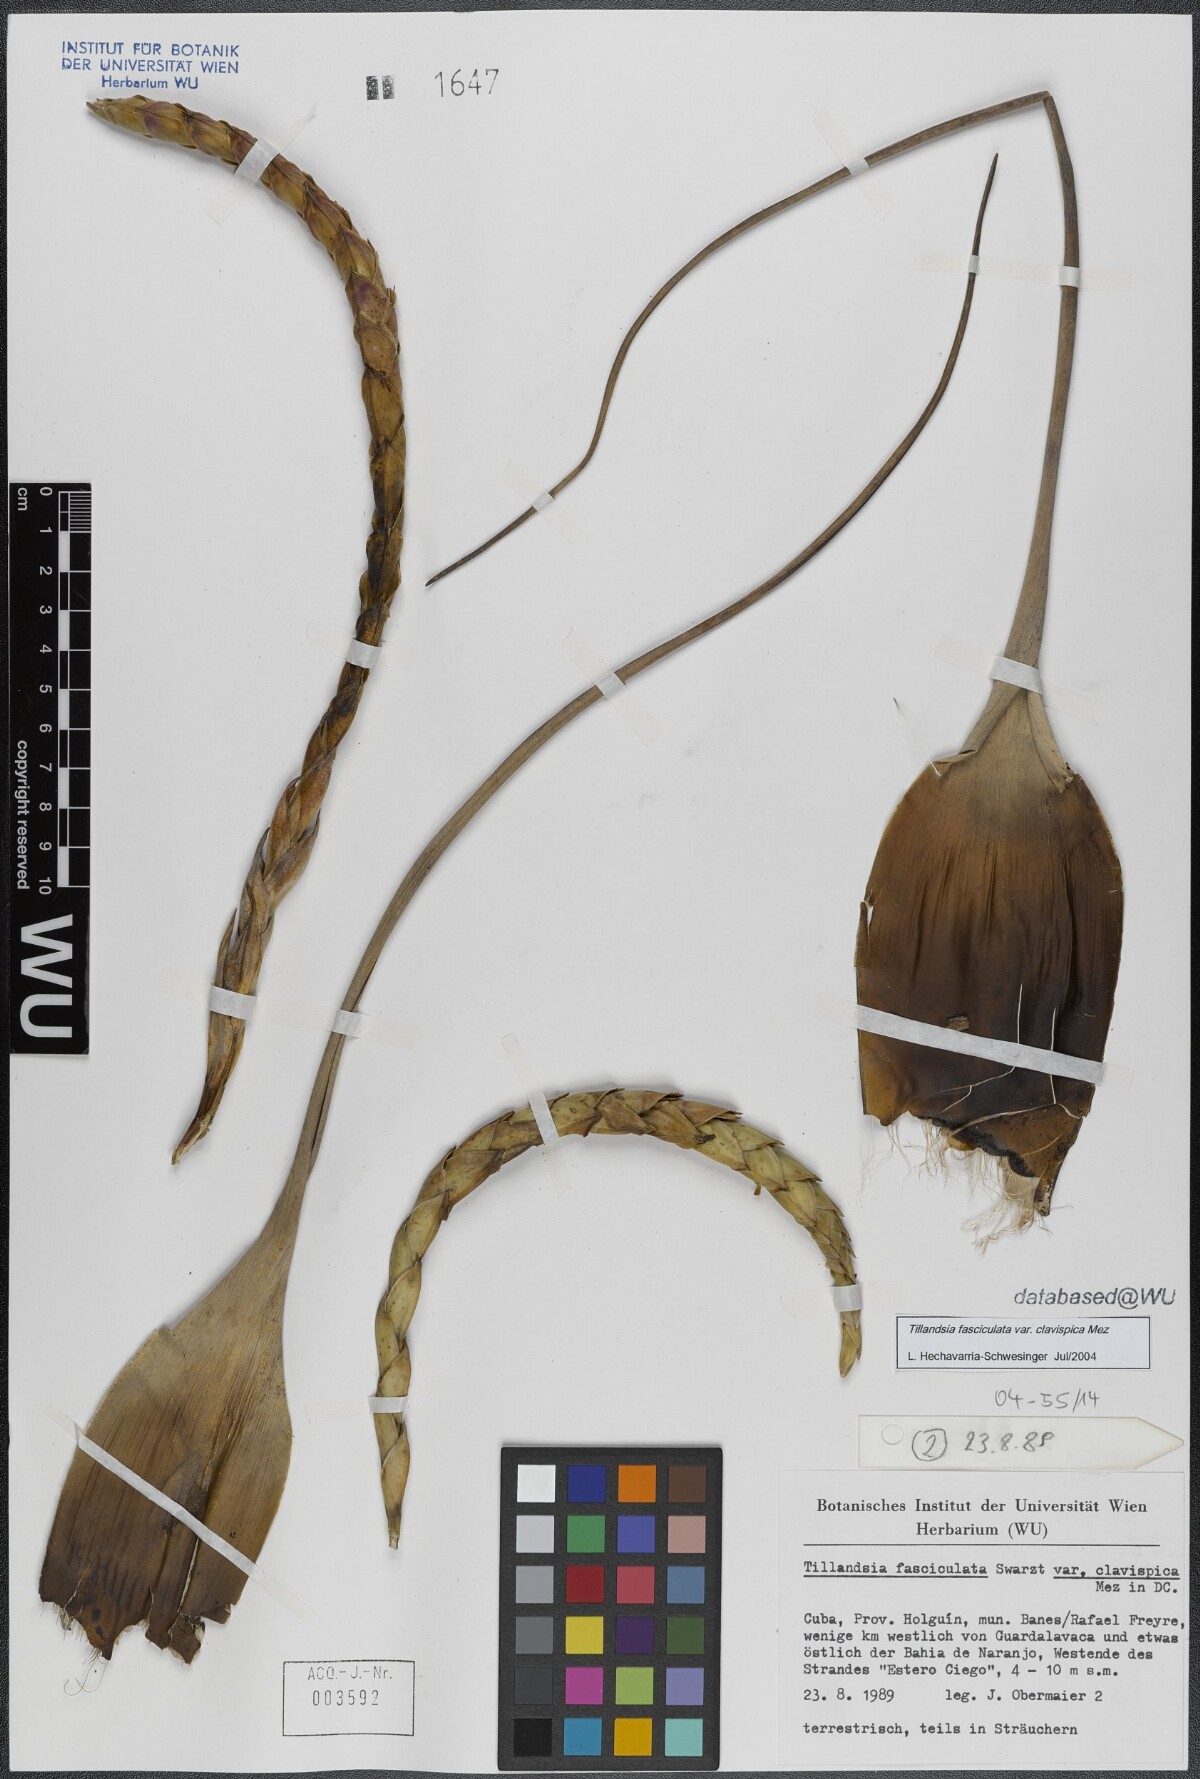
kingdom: Plantae
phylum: Tracheophyta
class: Liliopsida
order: Poales
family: Bromeliaceae
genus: Tillandsia
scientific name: Tillandsia fasciculata
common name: Giant airplant
